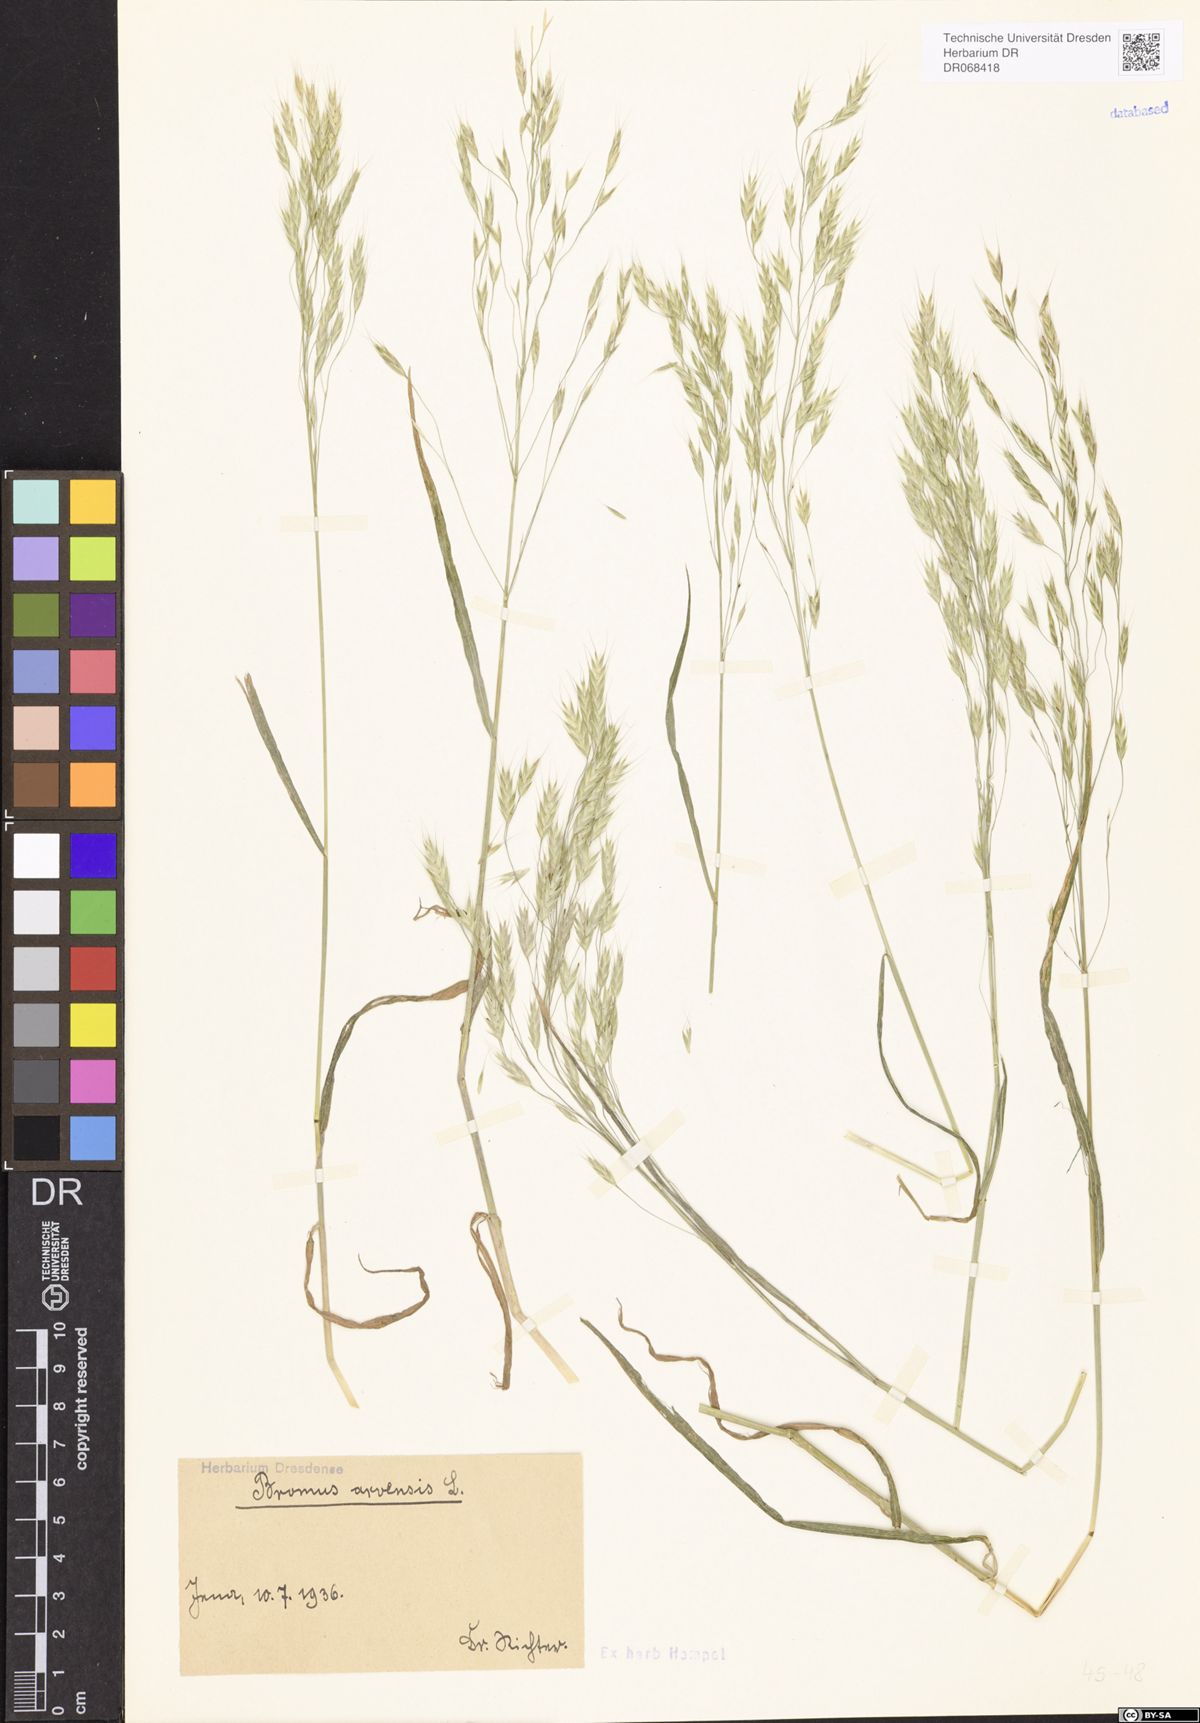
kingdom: Plantae
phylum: Tracheophyta
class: Liliopsida
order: Poales
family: Poaceae
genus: Bromus
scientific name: Bromus arvensis
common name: Field brome
